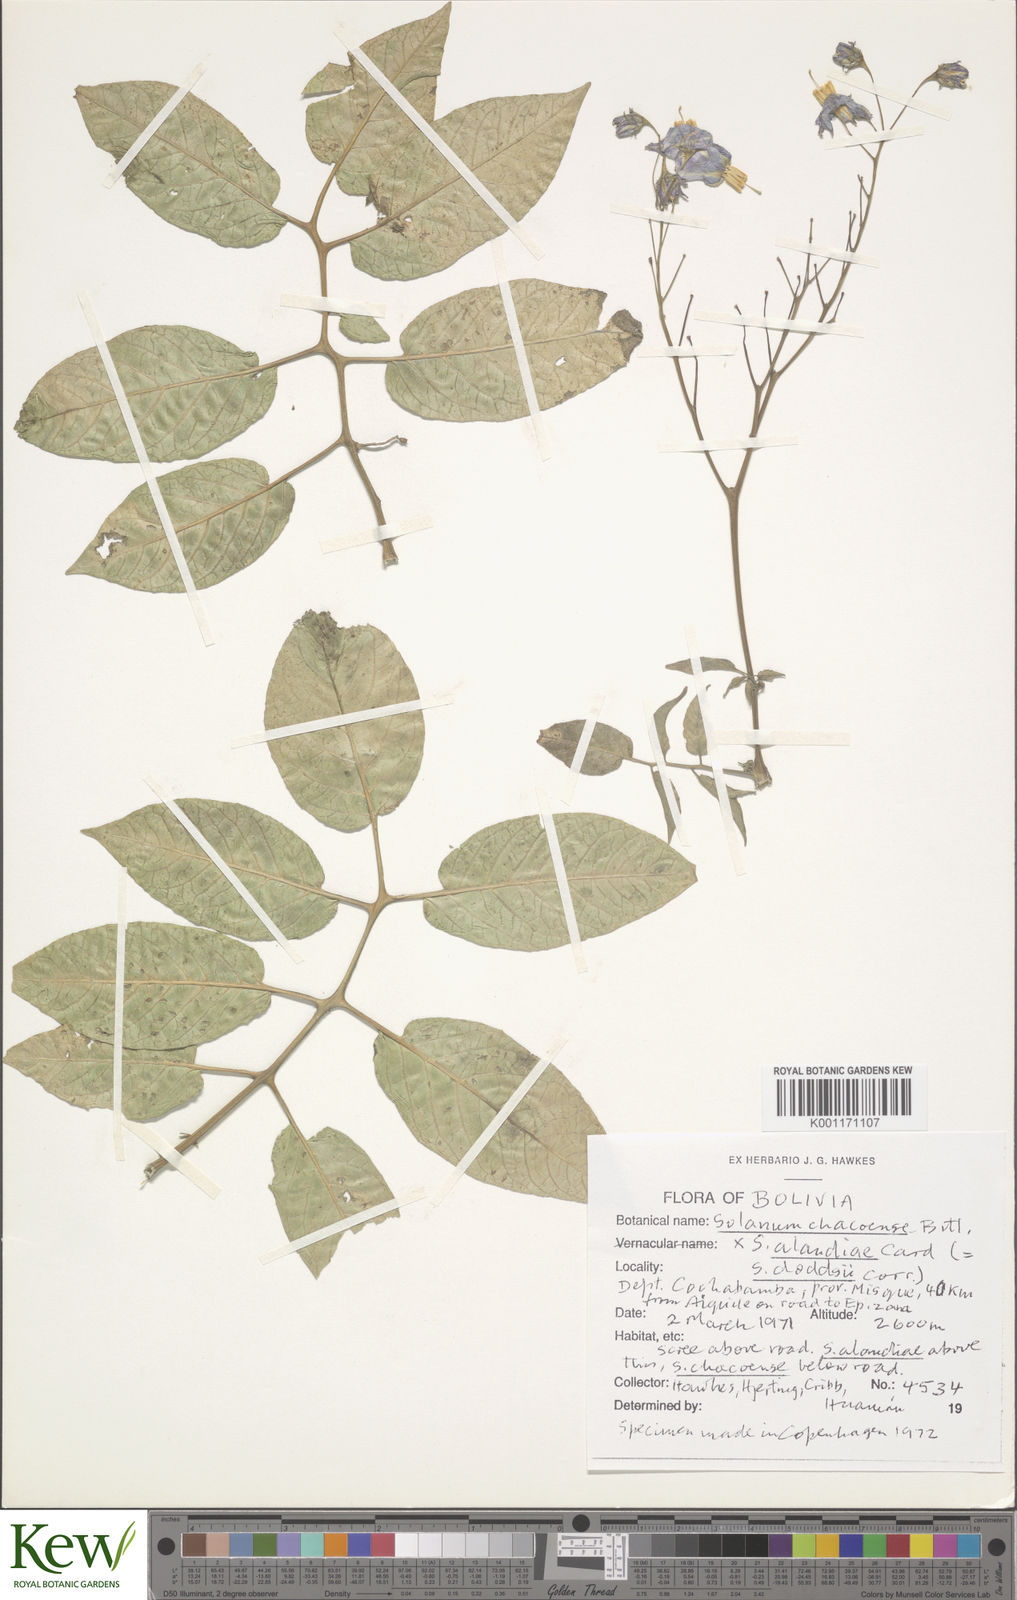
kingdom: Plantae
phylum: Tracheophyta
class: Magnoliopsida
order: Solanales
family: Solanaceae
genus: Solanum
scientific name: Solanum chacoense
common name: Chaco potato
